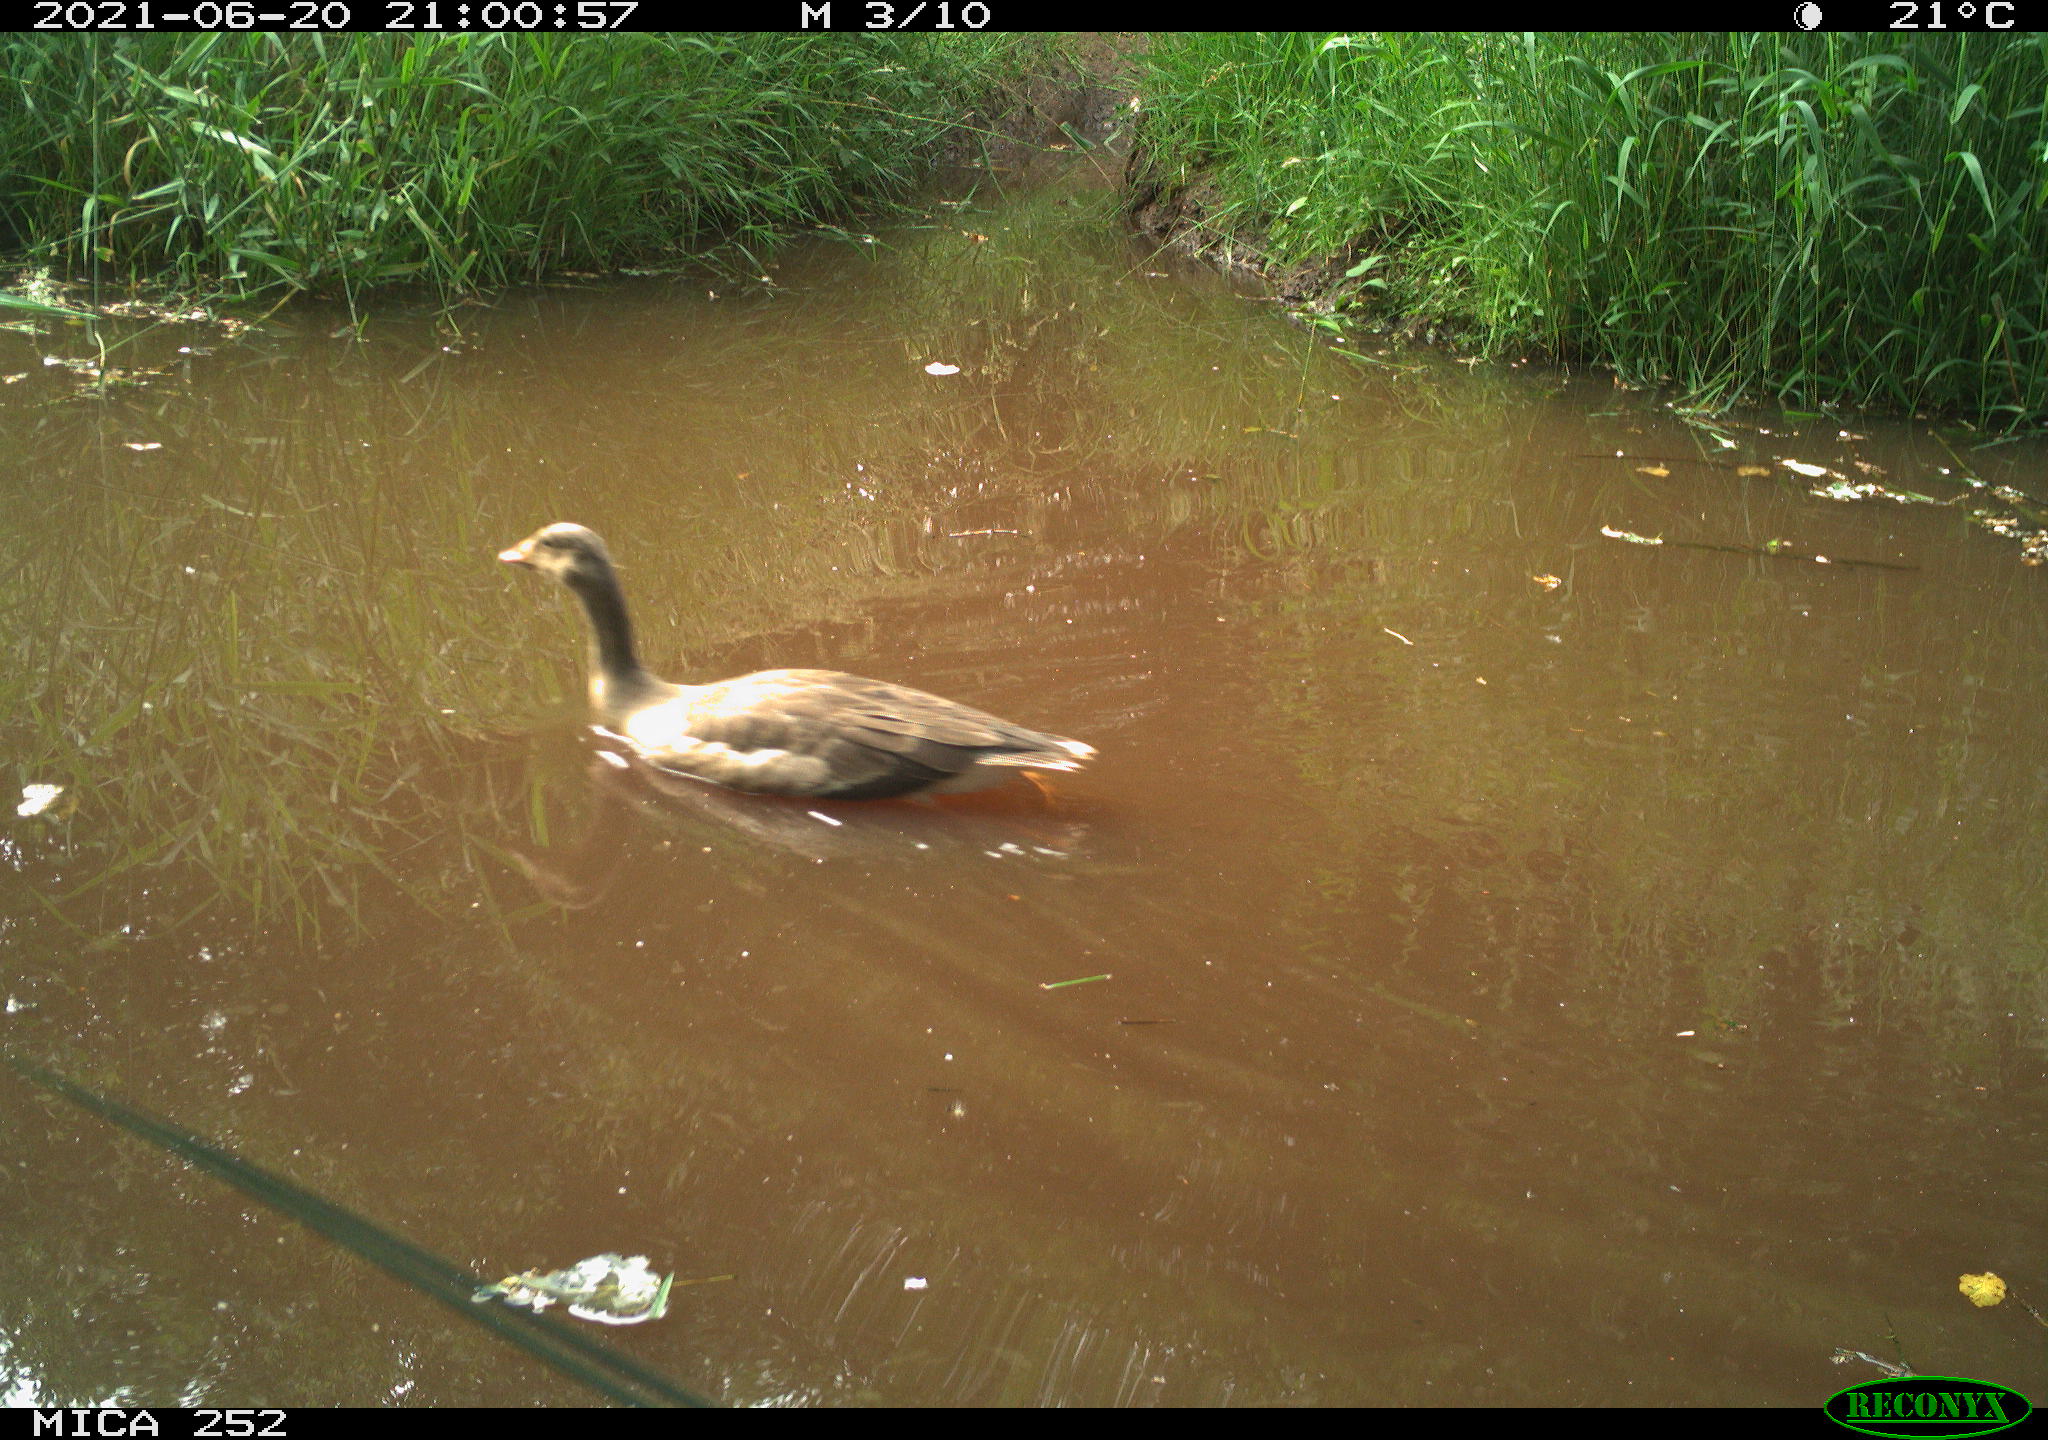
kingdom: Animalia
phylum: Chordata
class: Aves
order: Anseriformes
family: Anatidae
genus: Anas
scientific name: Anas
